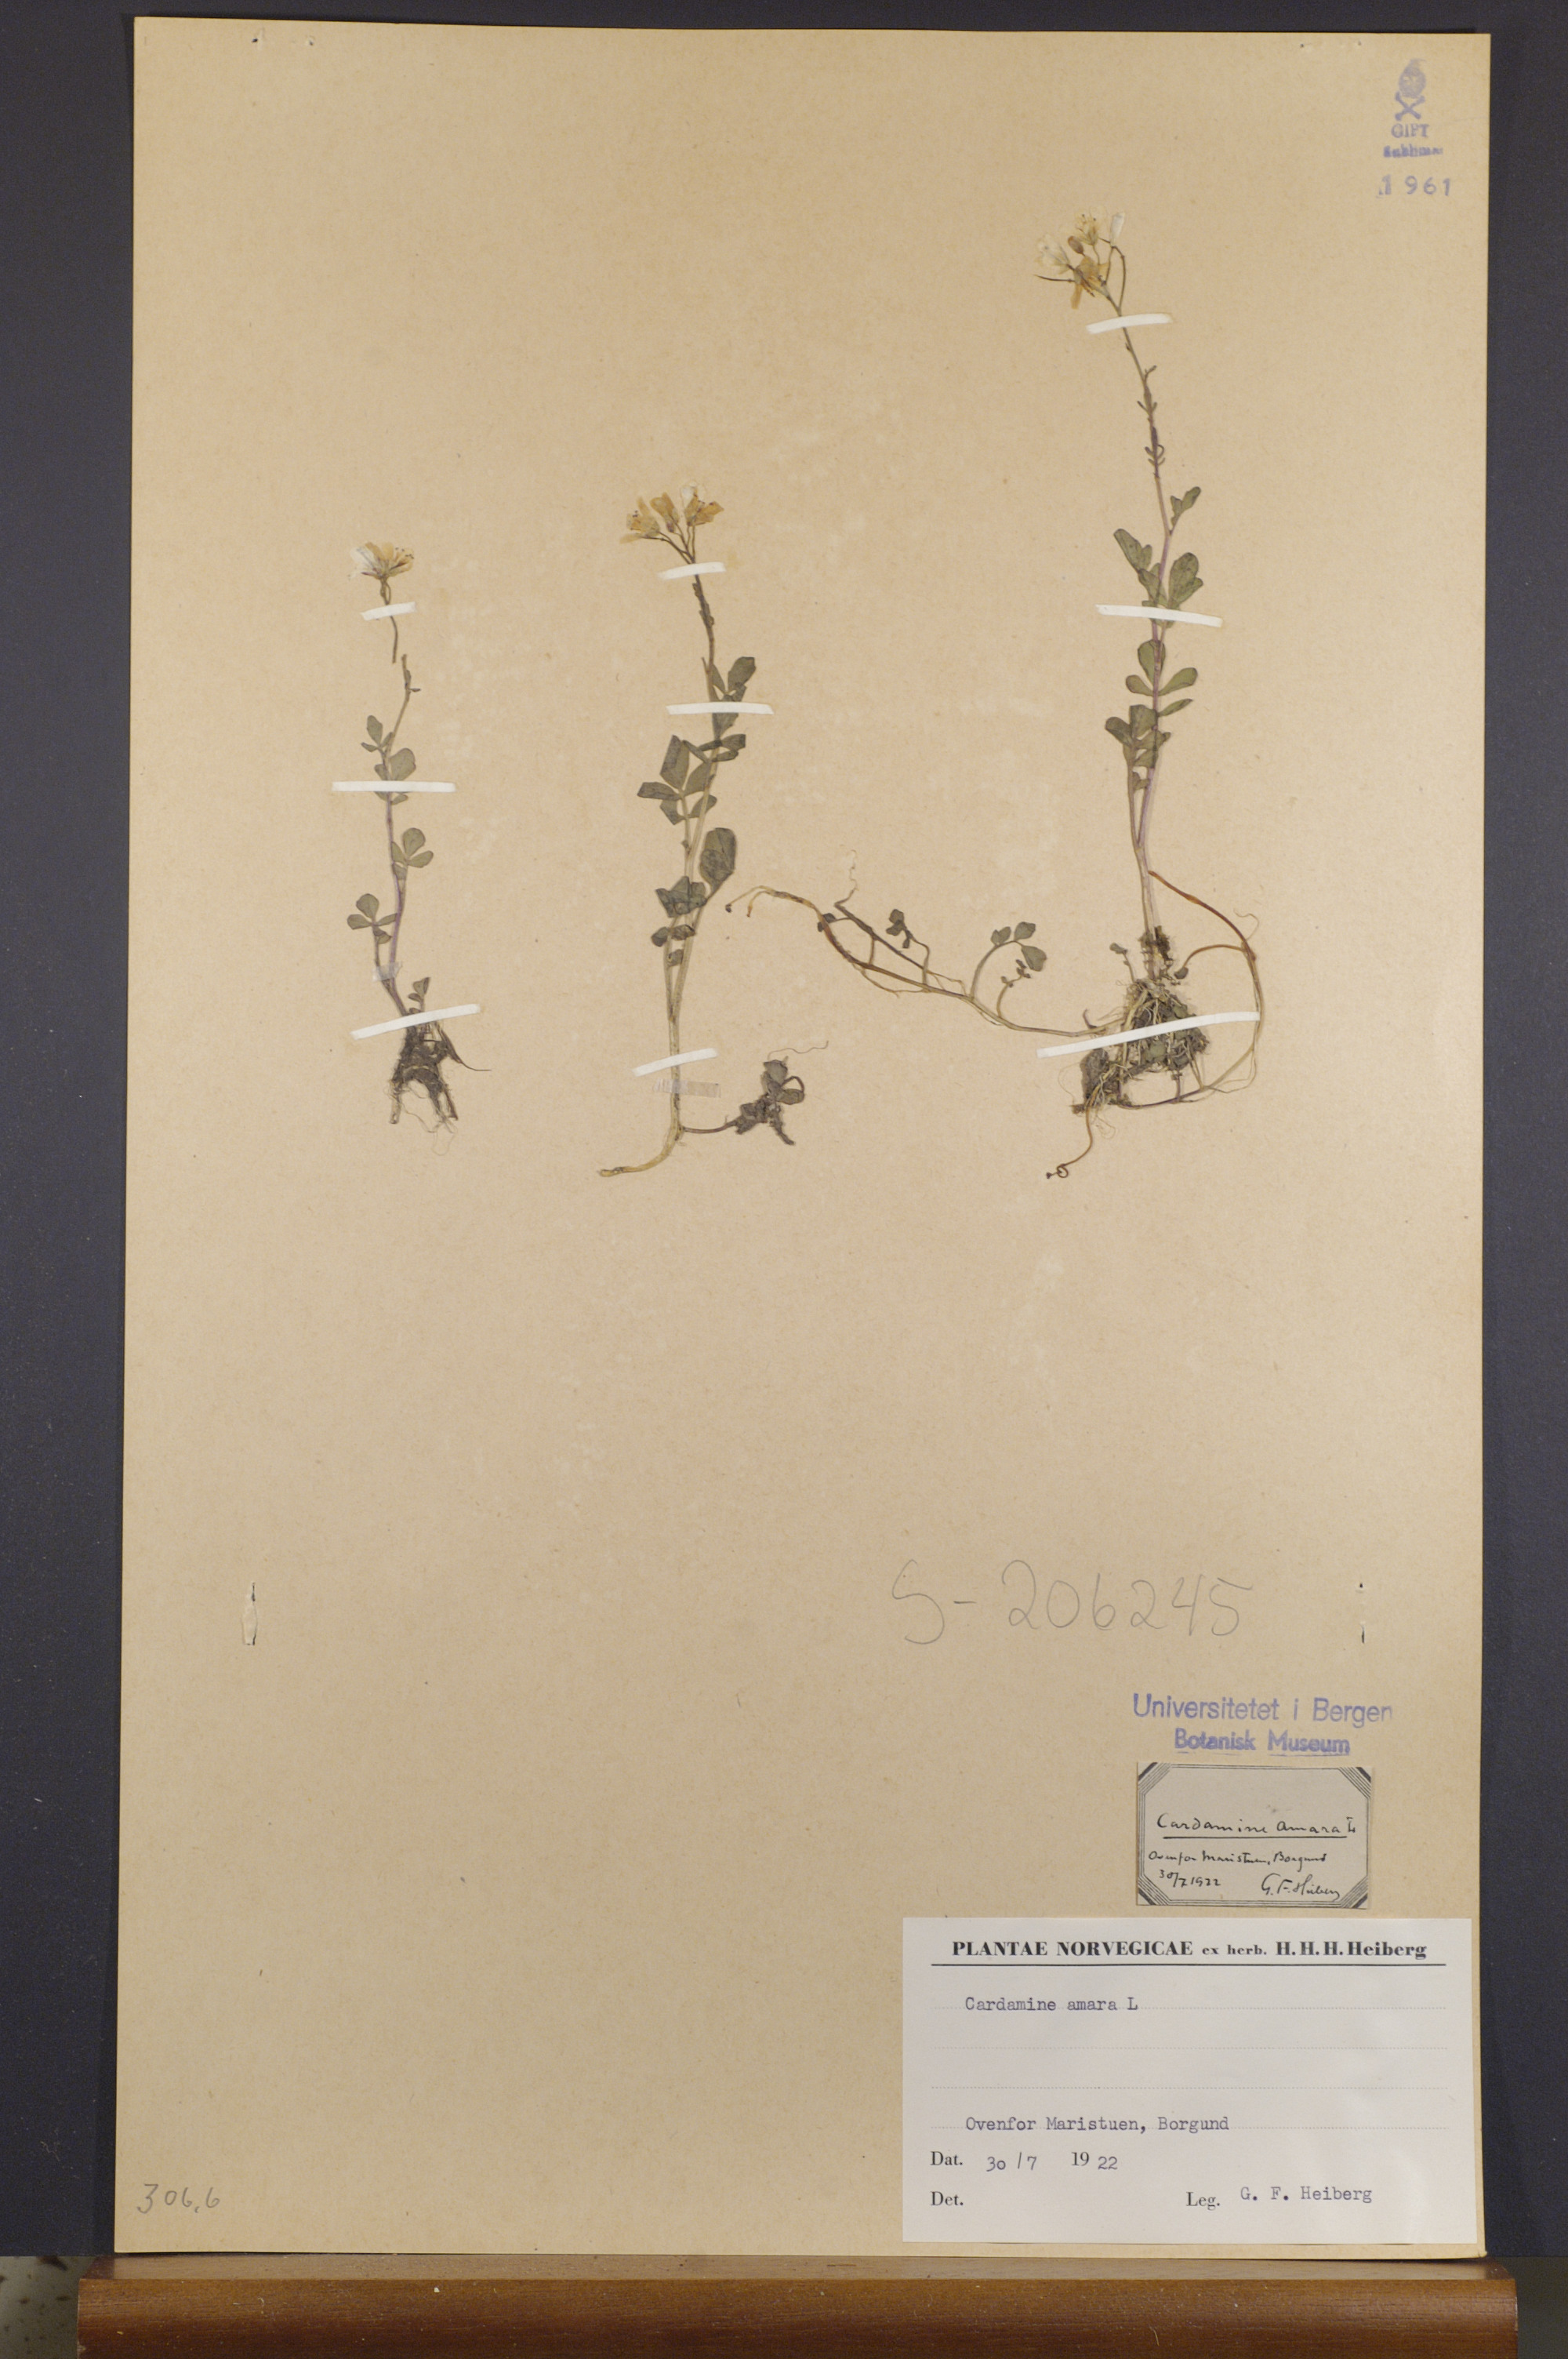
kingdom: Plantae
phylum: Tracheophyta
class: Magnoliopsida
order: Brassicales
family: Brassicaceae
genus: Cardamine
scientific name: Cardamine amara
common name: Large bitter-cress
